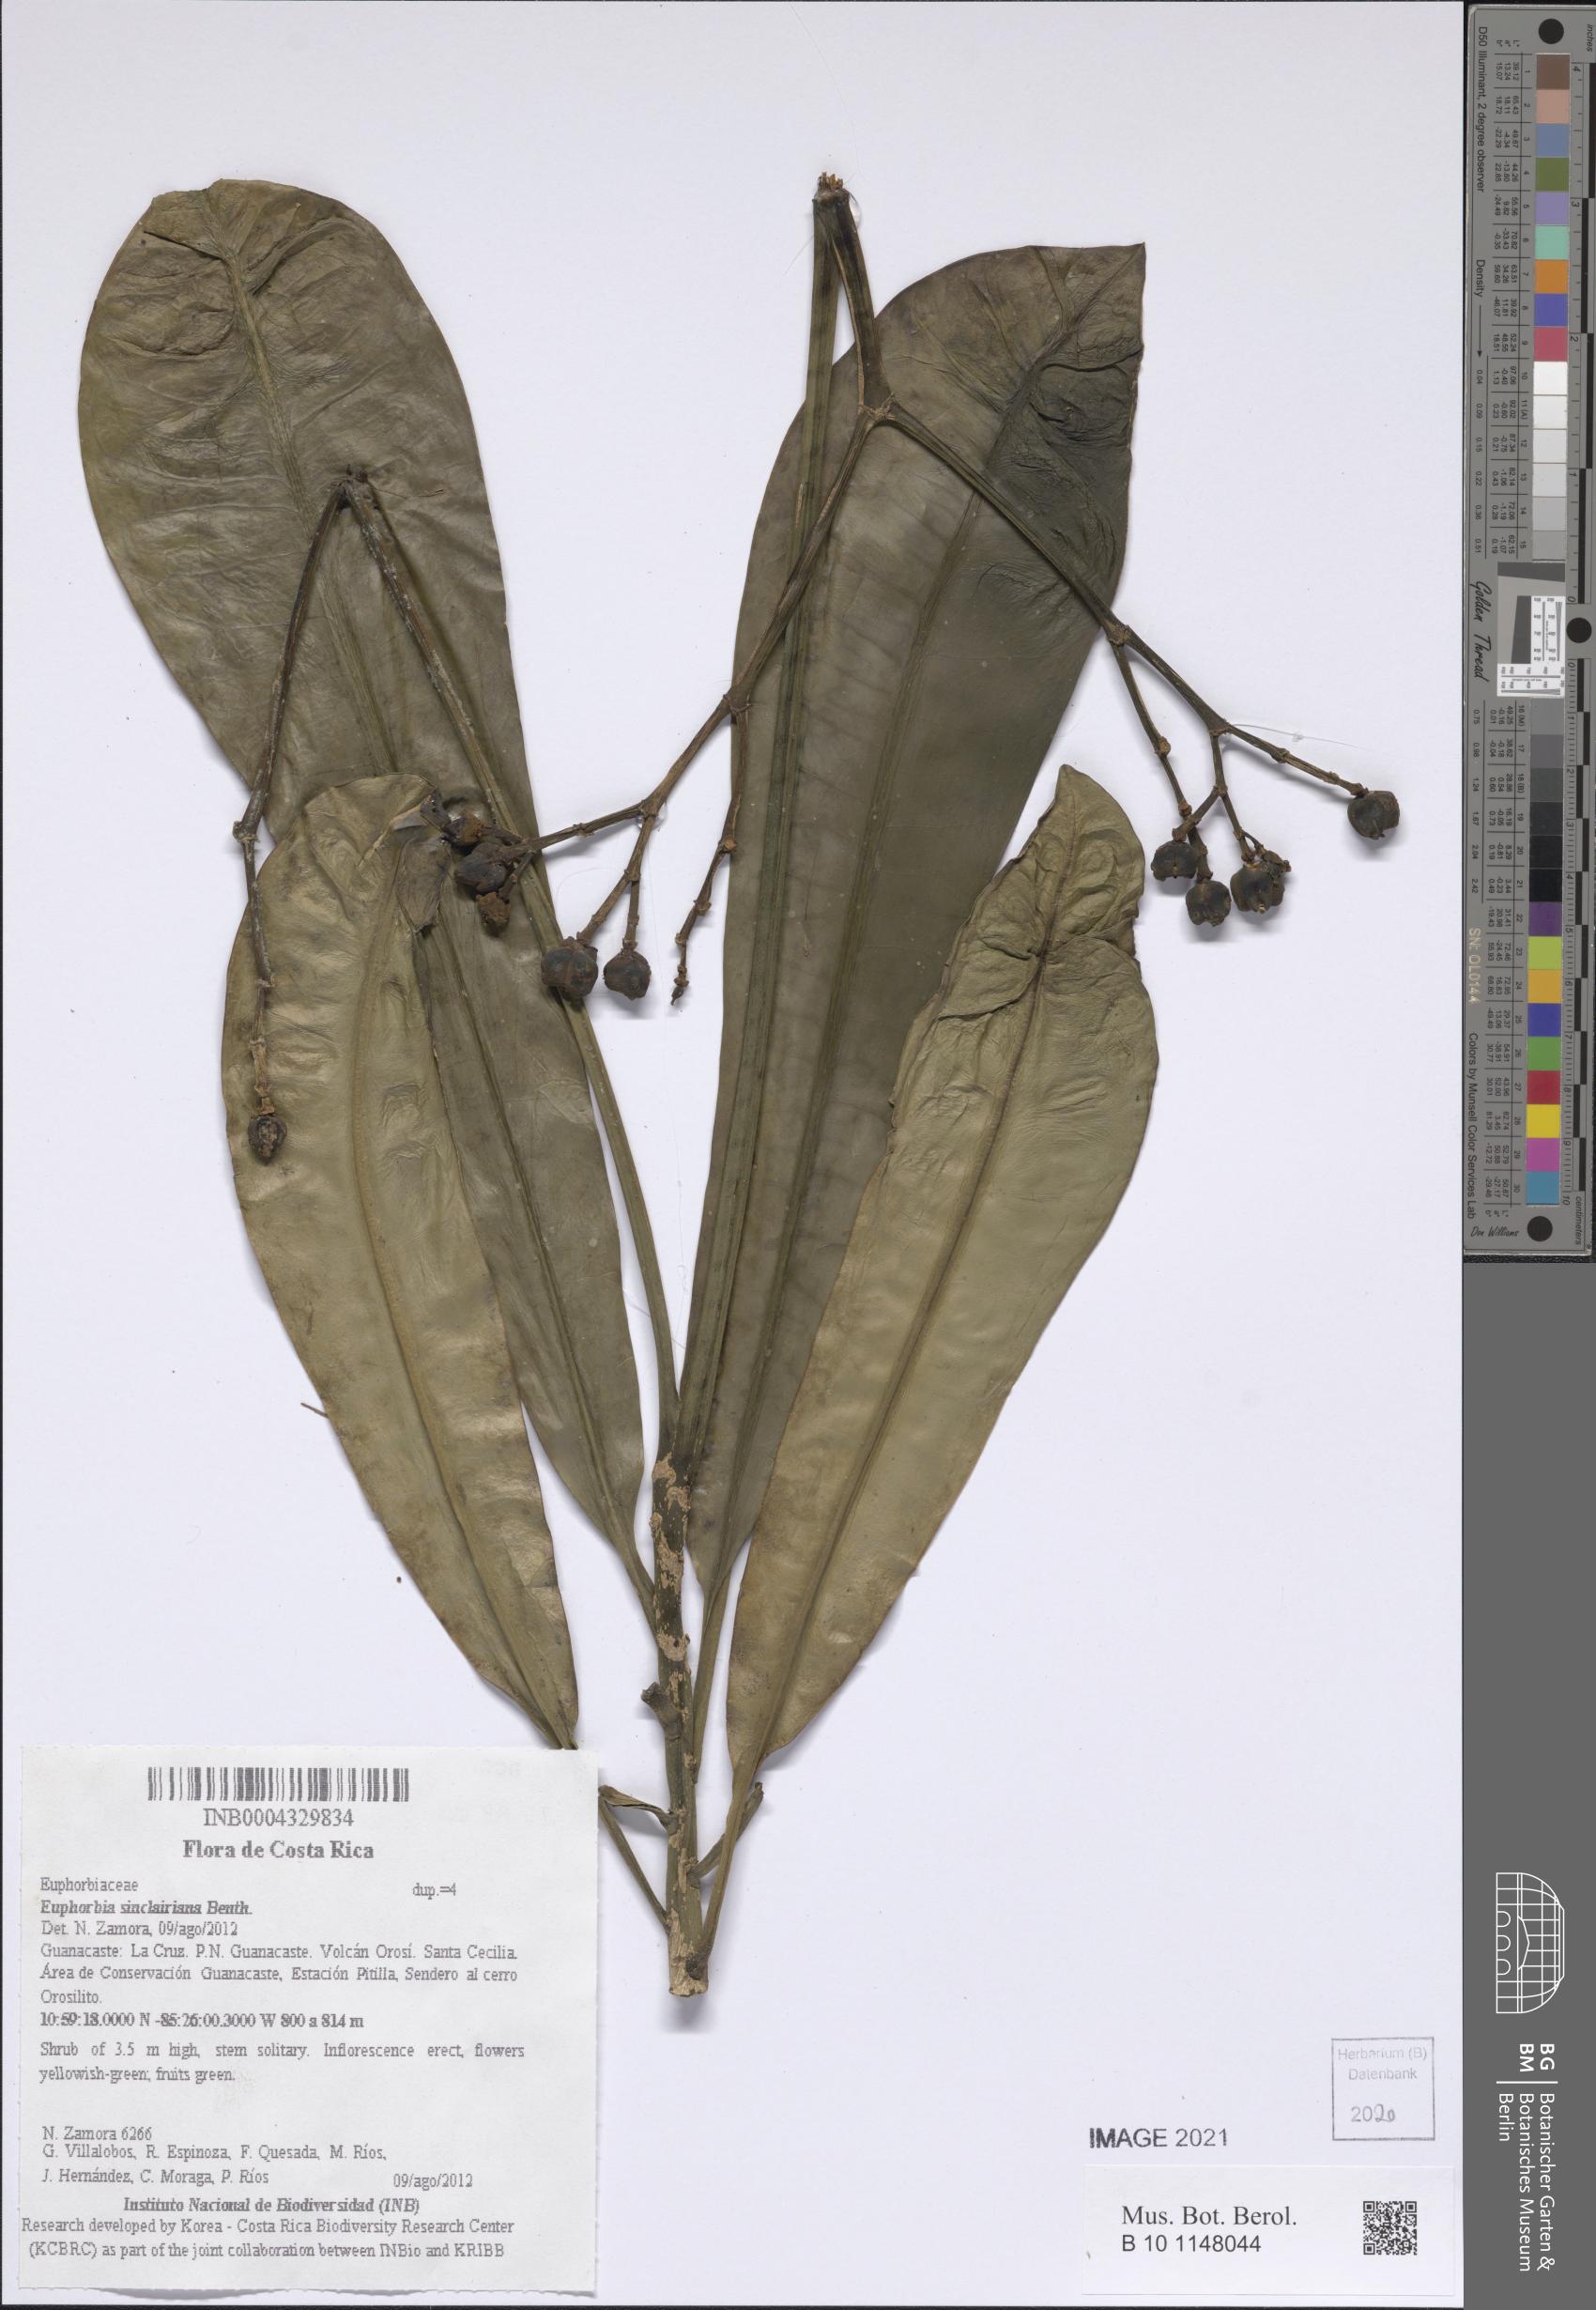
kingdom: Plantae
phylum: Tracheophyta
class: Magnoliopsida
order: Malpighiales
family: Euphorbiaceae
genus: Euphorbia
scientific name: Euphorbia sinclairiana
